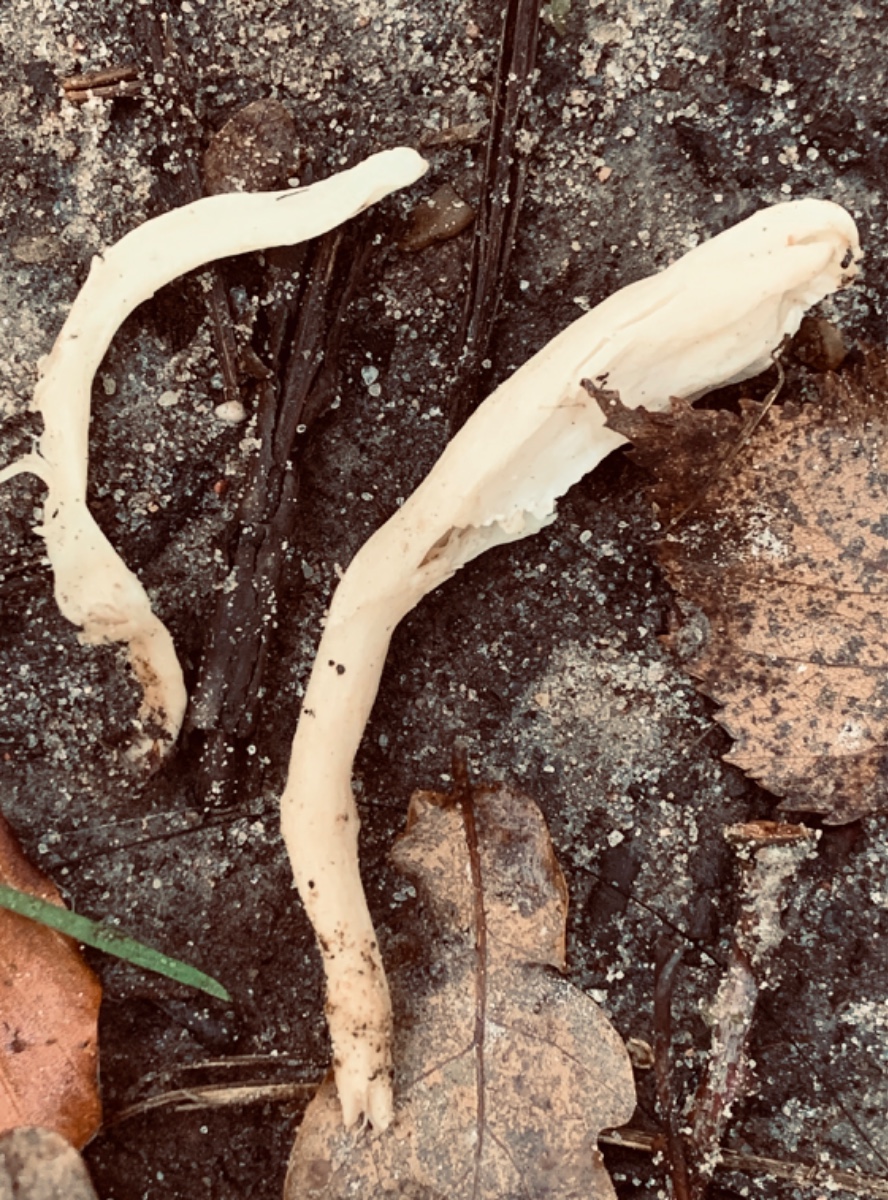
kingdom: Fungi
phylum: Basidiomycota
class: Agaricomycetes
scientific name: Agaricomycetes
